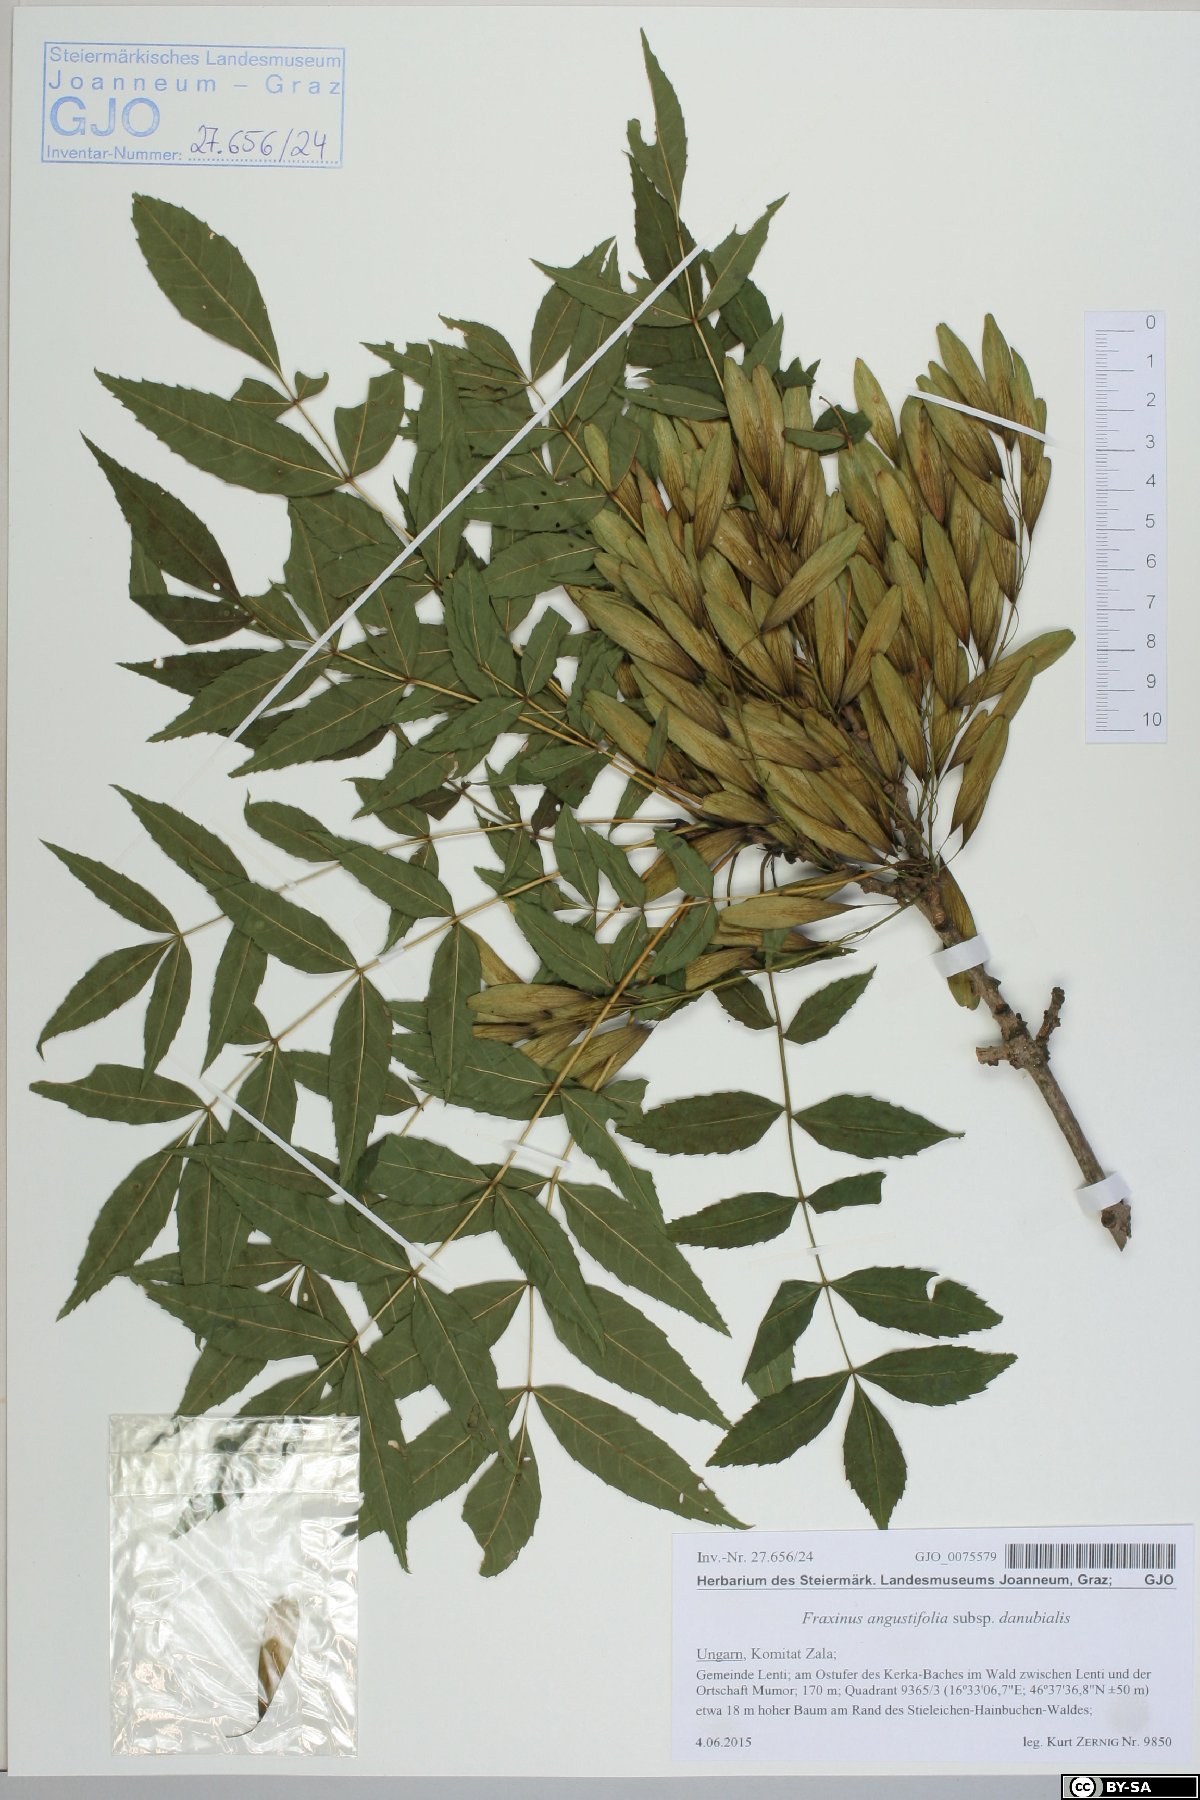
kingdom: Plantae
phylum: Tracheophyta
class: Magnoliopsida
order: Lamiales
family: Oleaceae
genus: Fraxinus
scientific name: Fraxinus angustifolia
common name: Narrow-leafed ash
